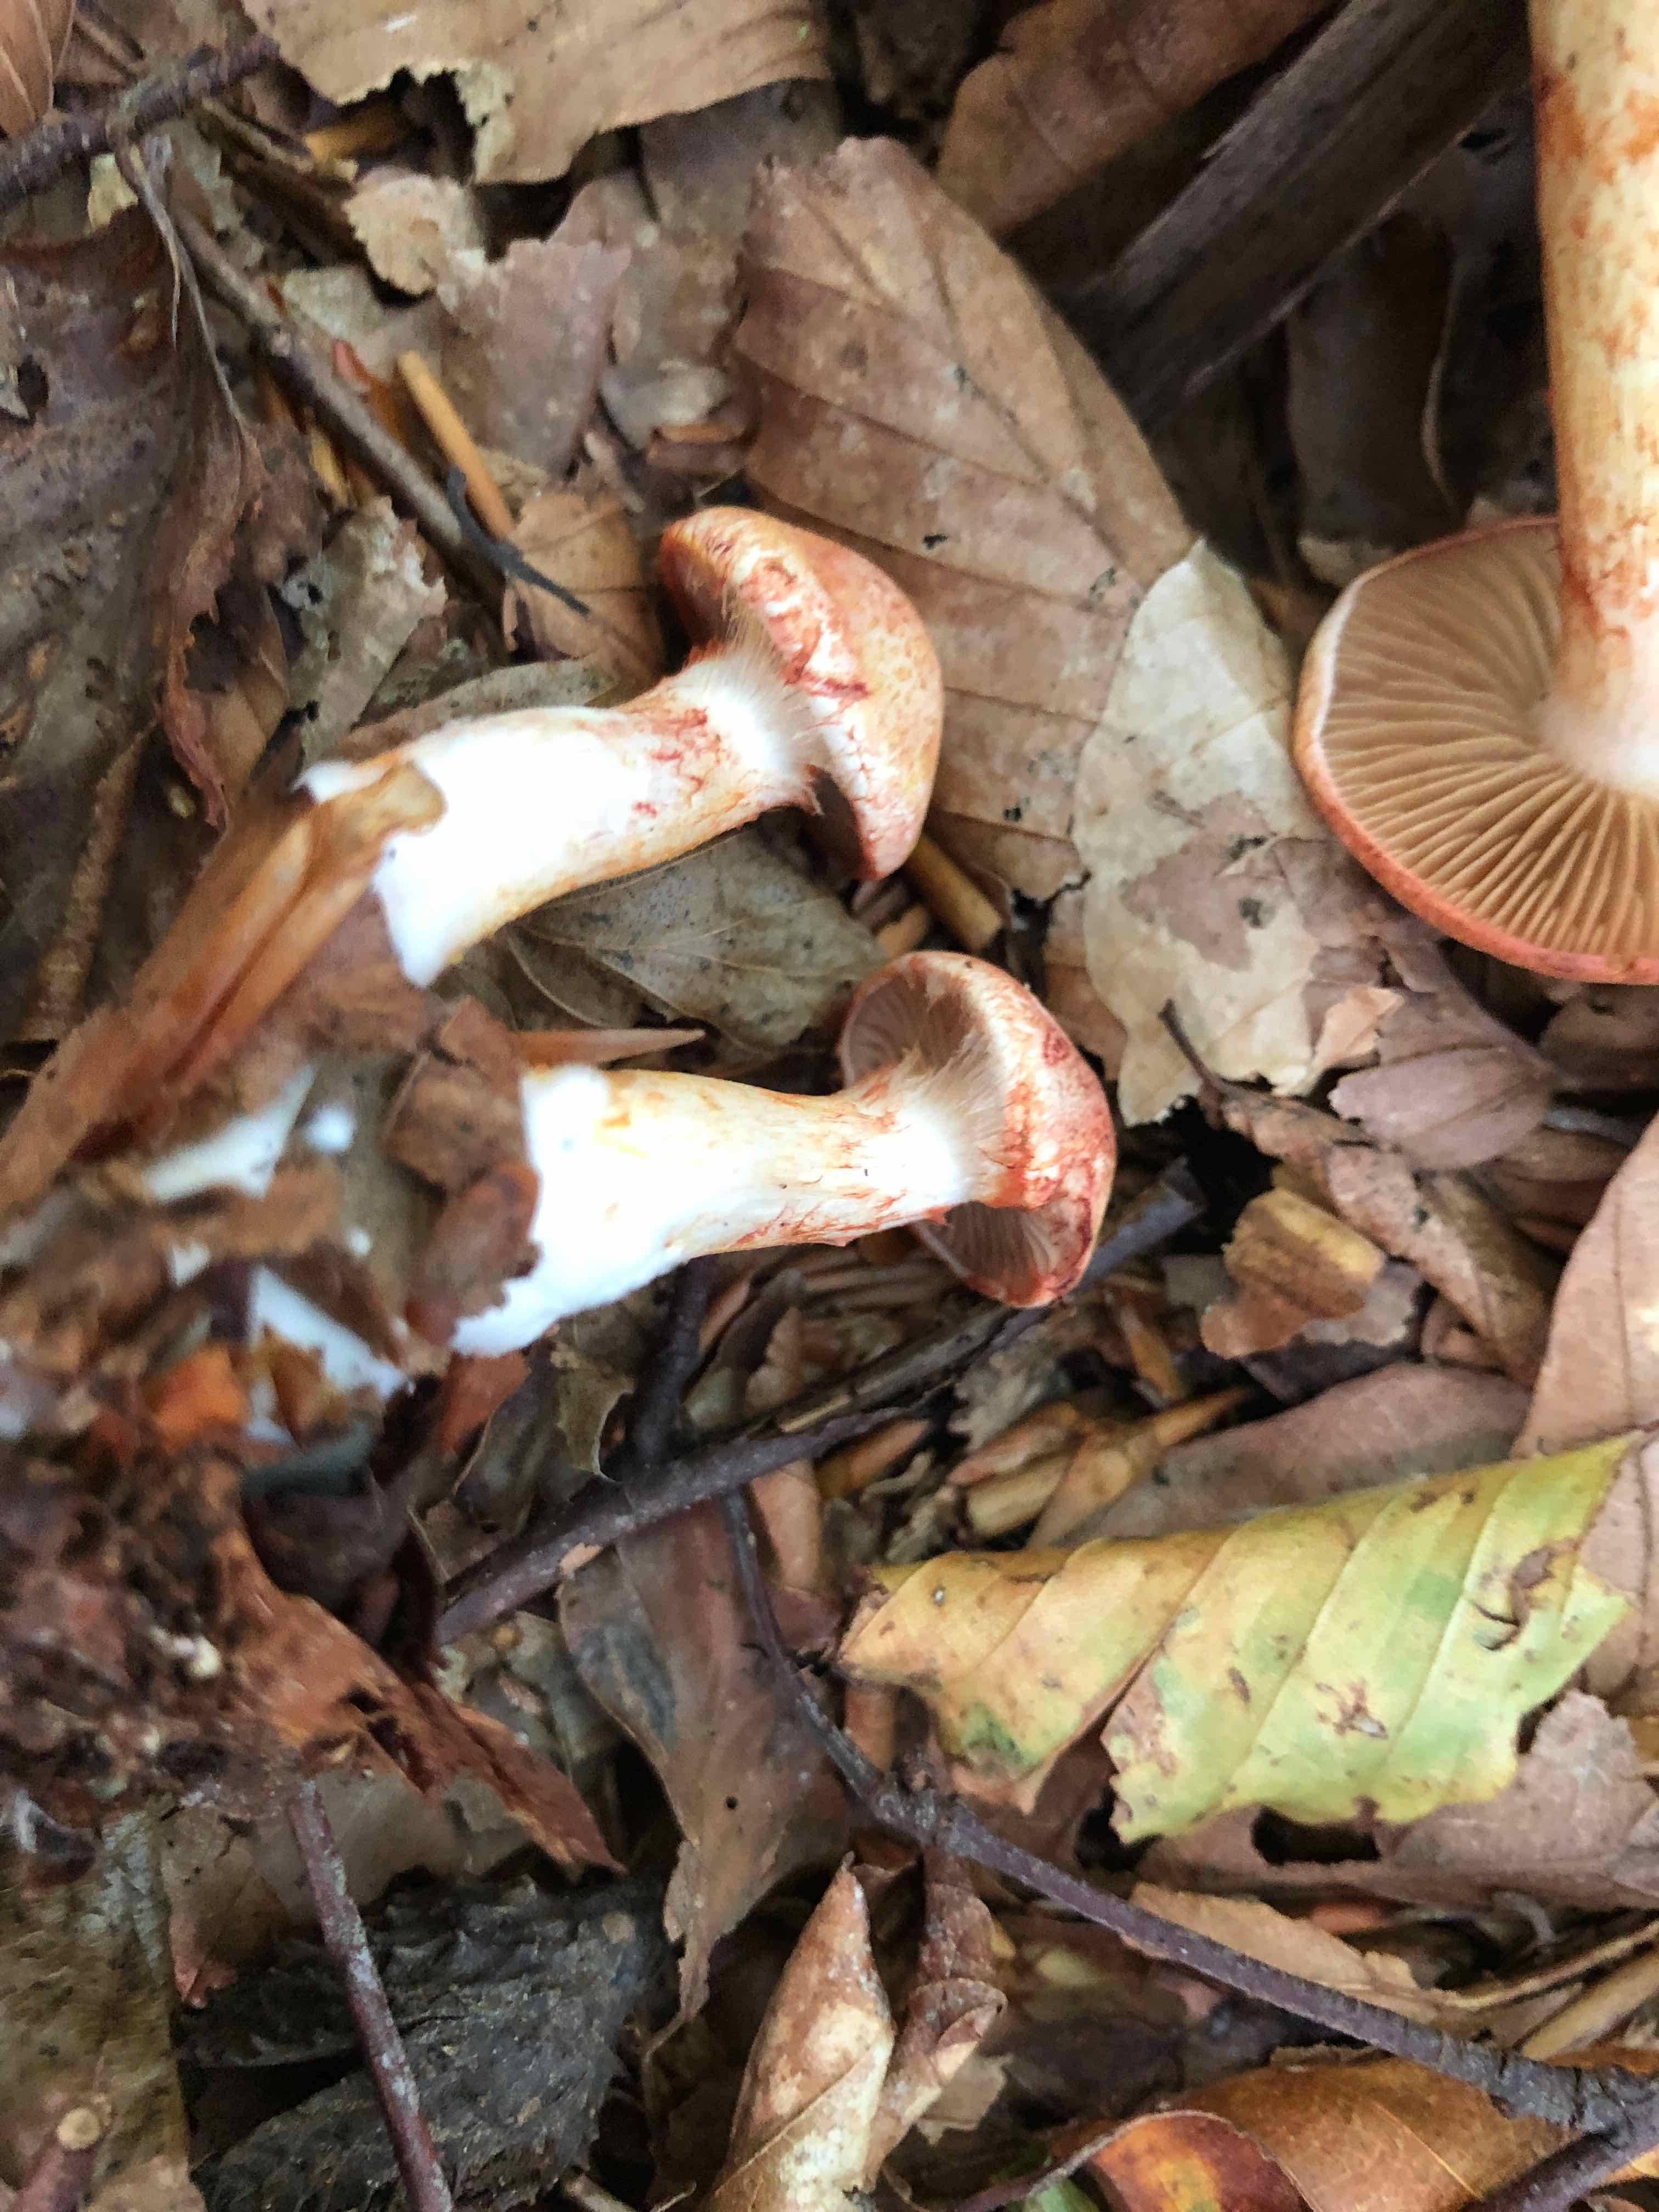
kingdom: Fungi
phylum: Basidiomycota
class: Agaricomycetes
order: Agaricales
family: Cortinariaceae
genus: Cortinarius
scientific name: Cortinarius bolaris
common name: cinnoberskællet slørhat
